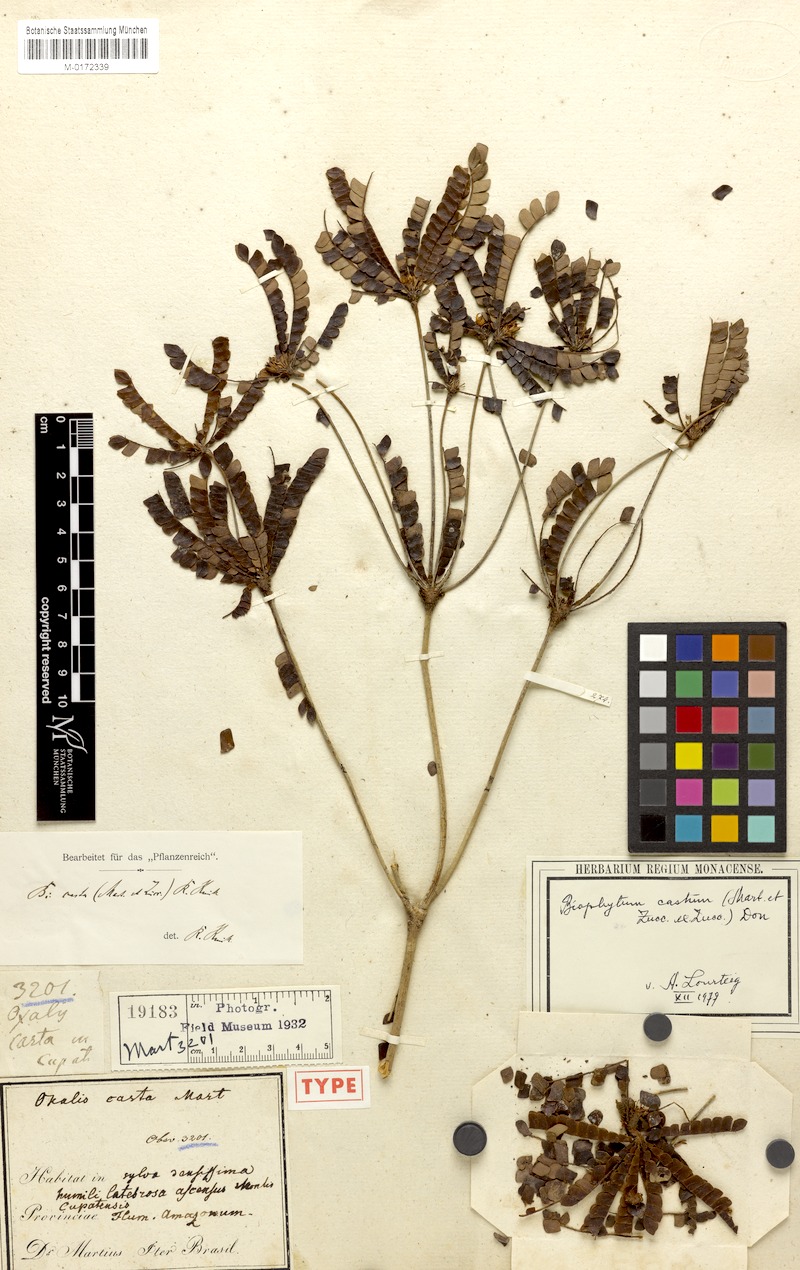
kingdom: Plantae
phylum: Tracheophyta
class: Magnoliopsida
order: Oxalidales
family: Oxalidaceae
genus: Biophytum
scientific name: Biophytum castum
